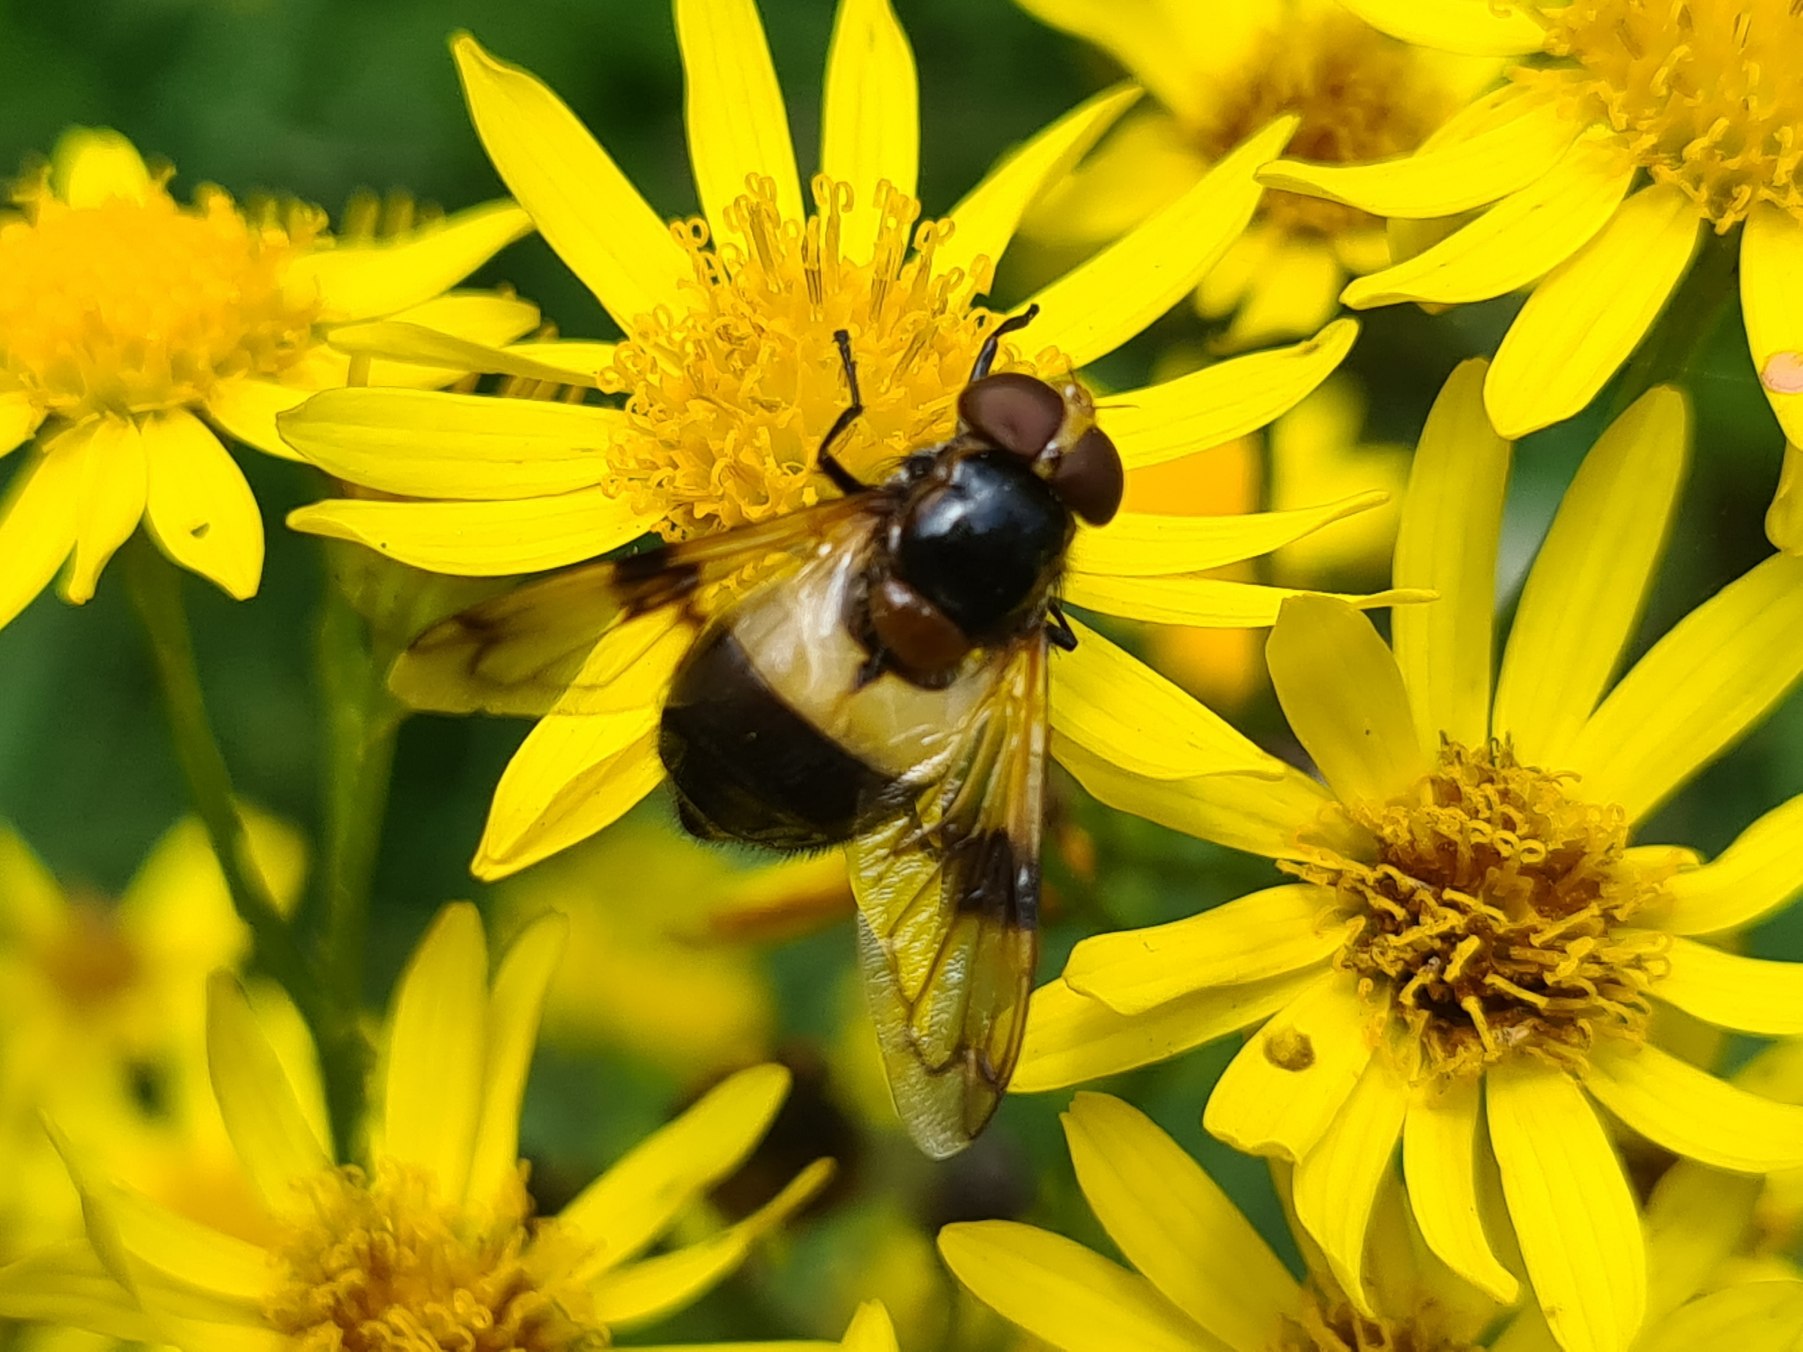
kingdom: Animalia
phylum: Arthropoda
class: Insecta
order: Diptera
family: Syrphidae
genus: Volucella
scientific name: Volucella pellucens
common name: Hvidbåndet humlesvirreflue
